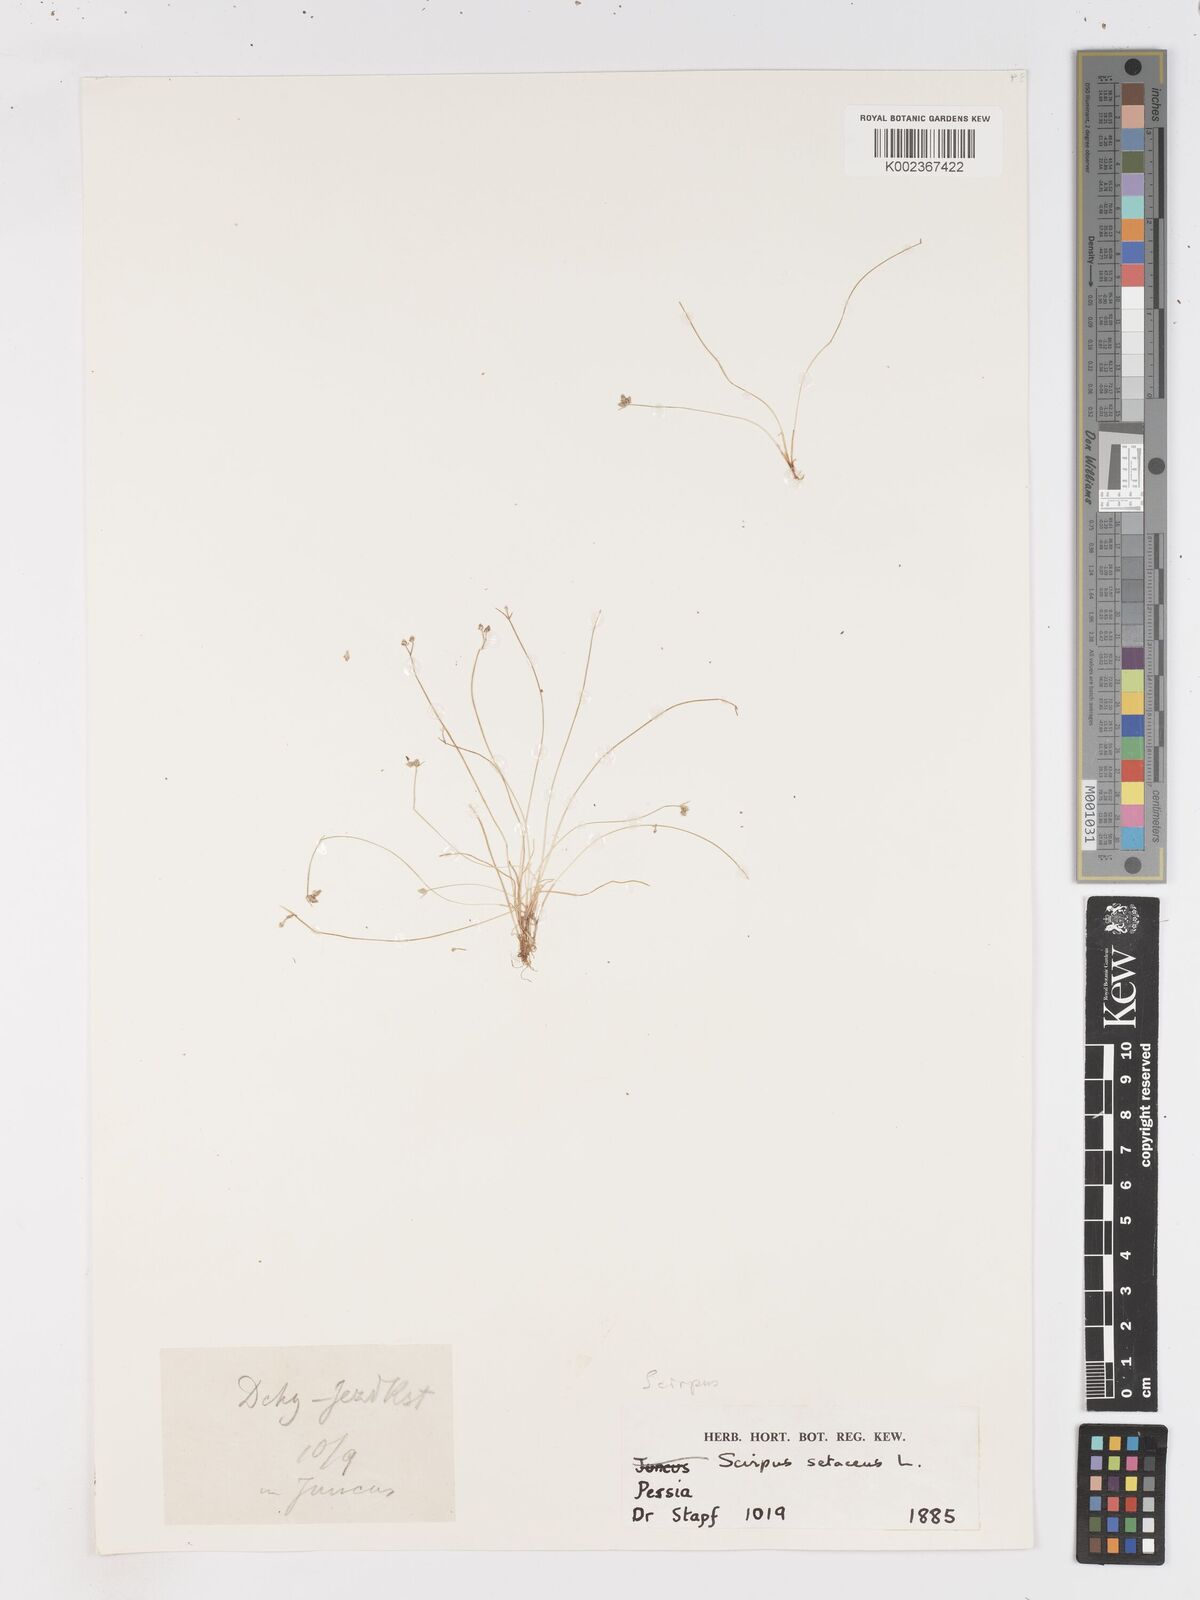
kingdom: Plantae
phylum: Tracheophyta
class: Liliopsida
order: Poales
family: Cyperaceae
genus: Isolepis
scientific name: Isolepis setacea
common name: Bristle club-rush
